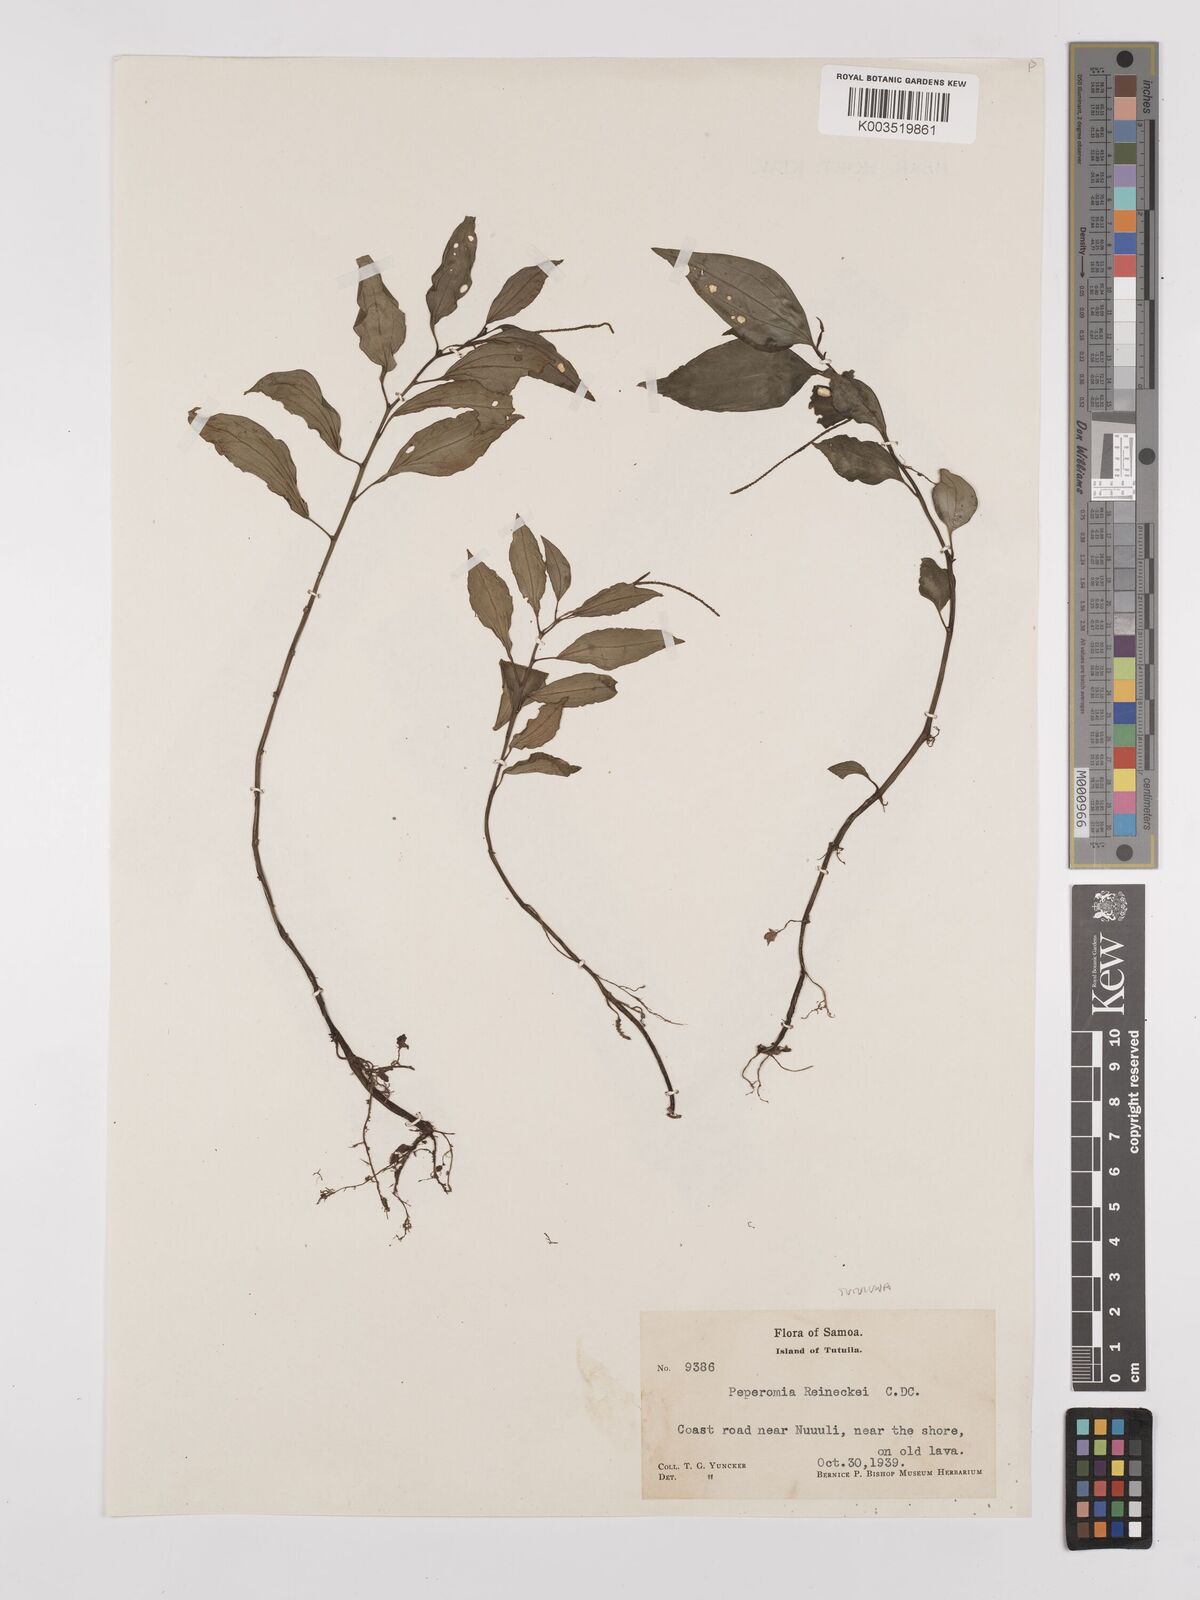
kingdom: Plantae
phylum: Tracheophyta
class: Magnoliopsida
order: Piperales
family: Piperaceae
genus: Peperomia
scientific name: Peperomia tutuilana
